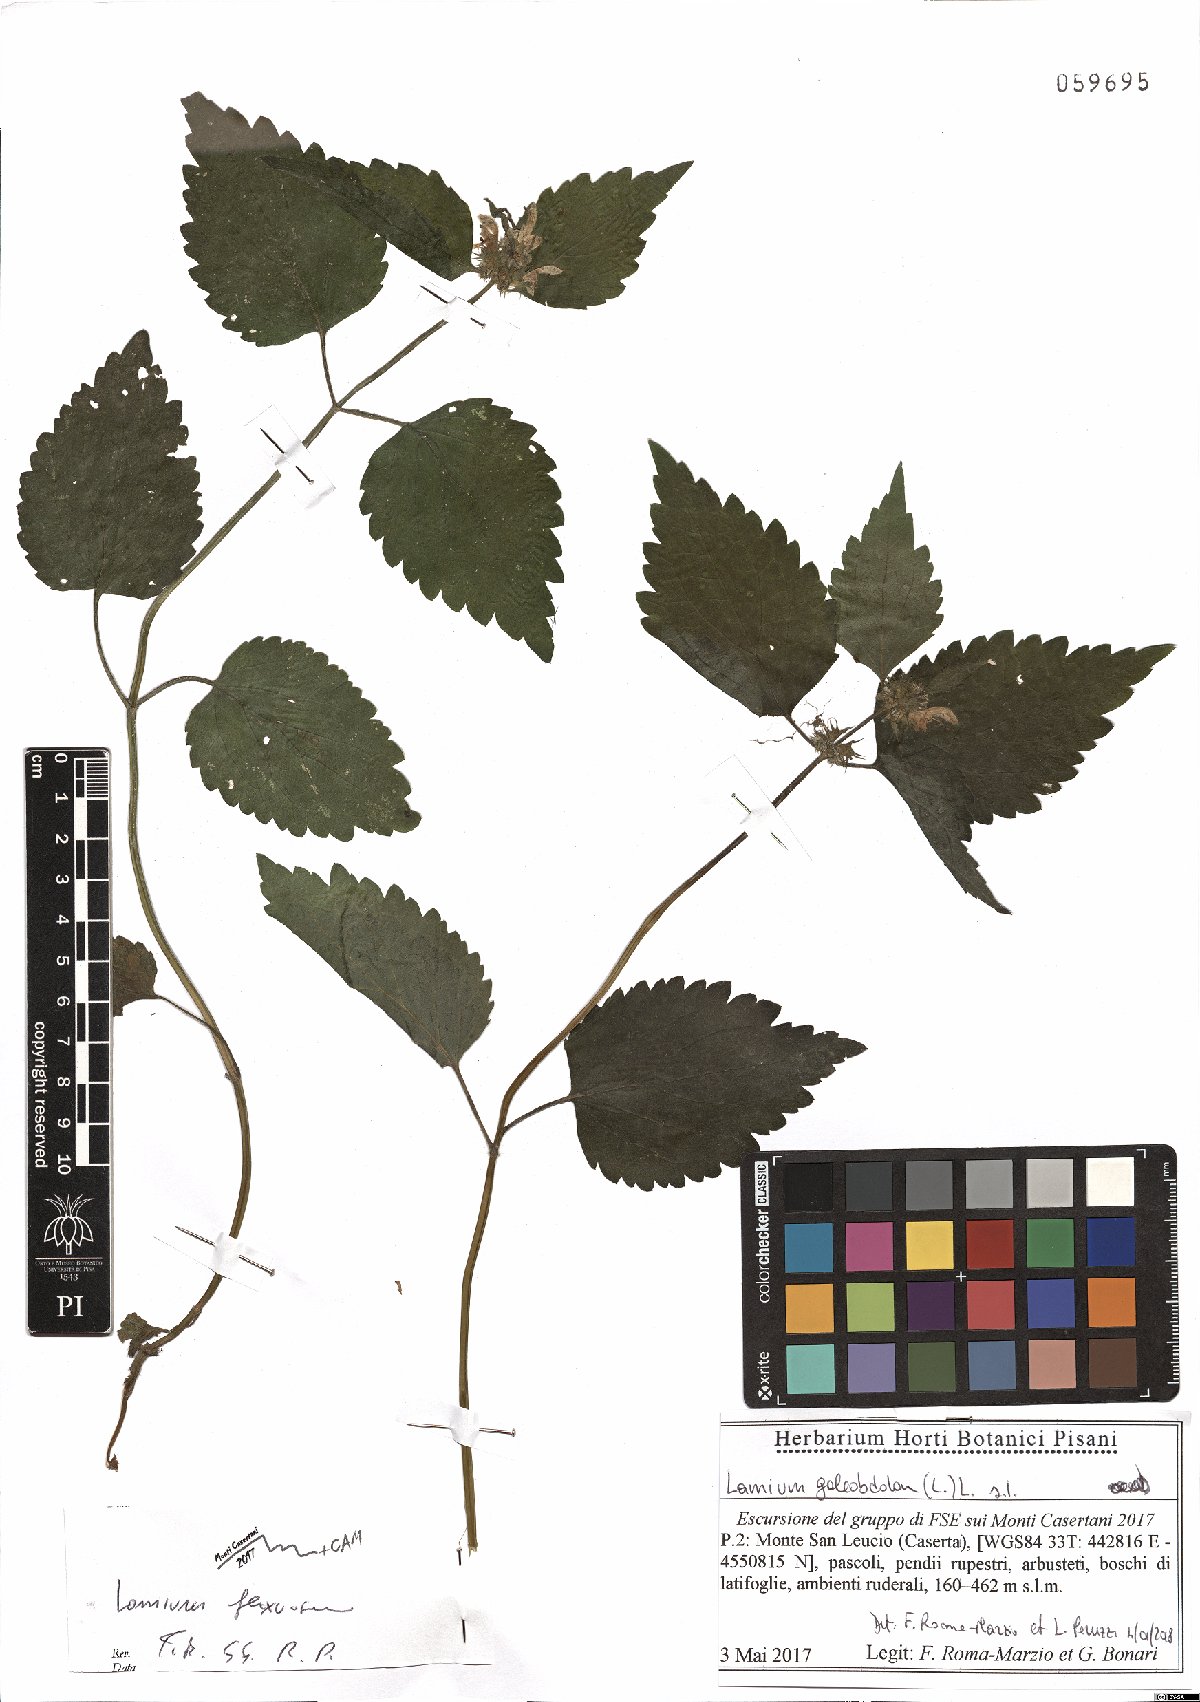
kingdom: Plantae
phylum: Tracheophyta
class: Magnoliopsida
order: Lamiales
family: Lamiaceae
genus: Lamium
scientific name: Lamium flexuosum
